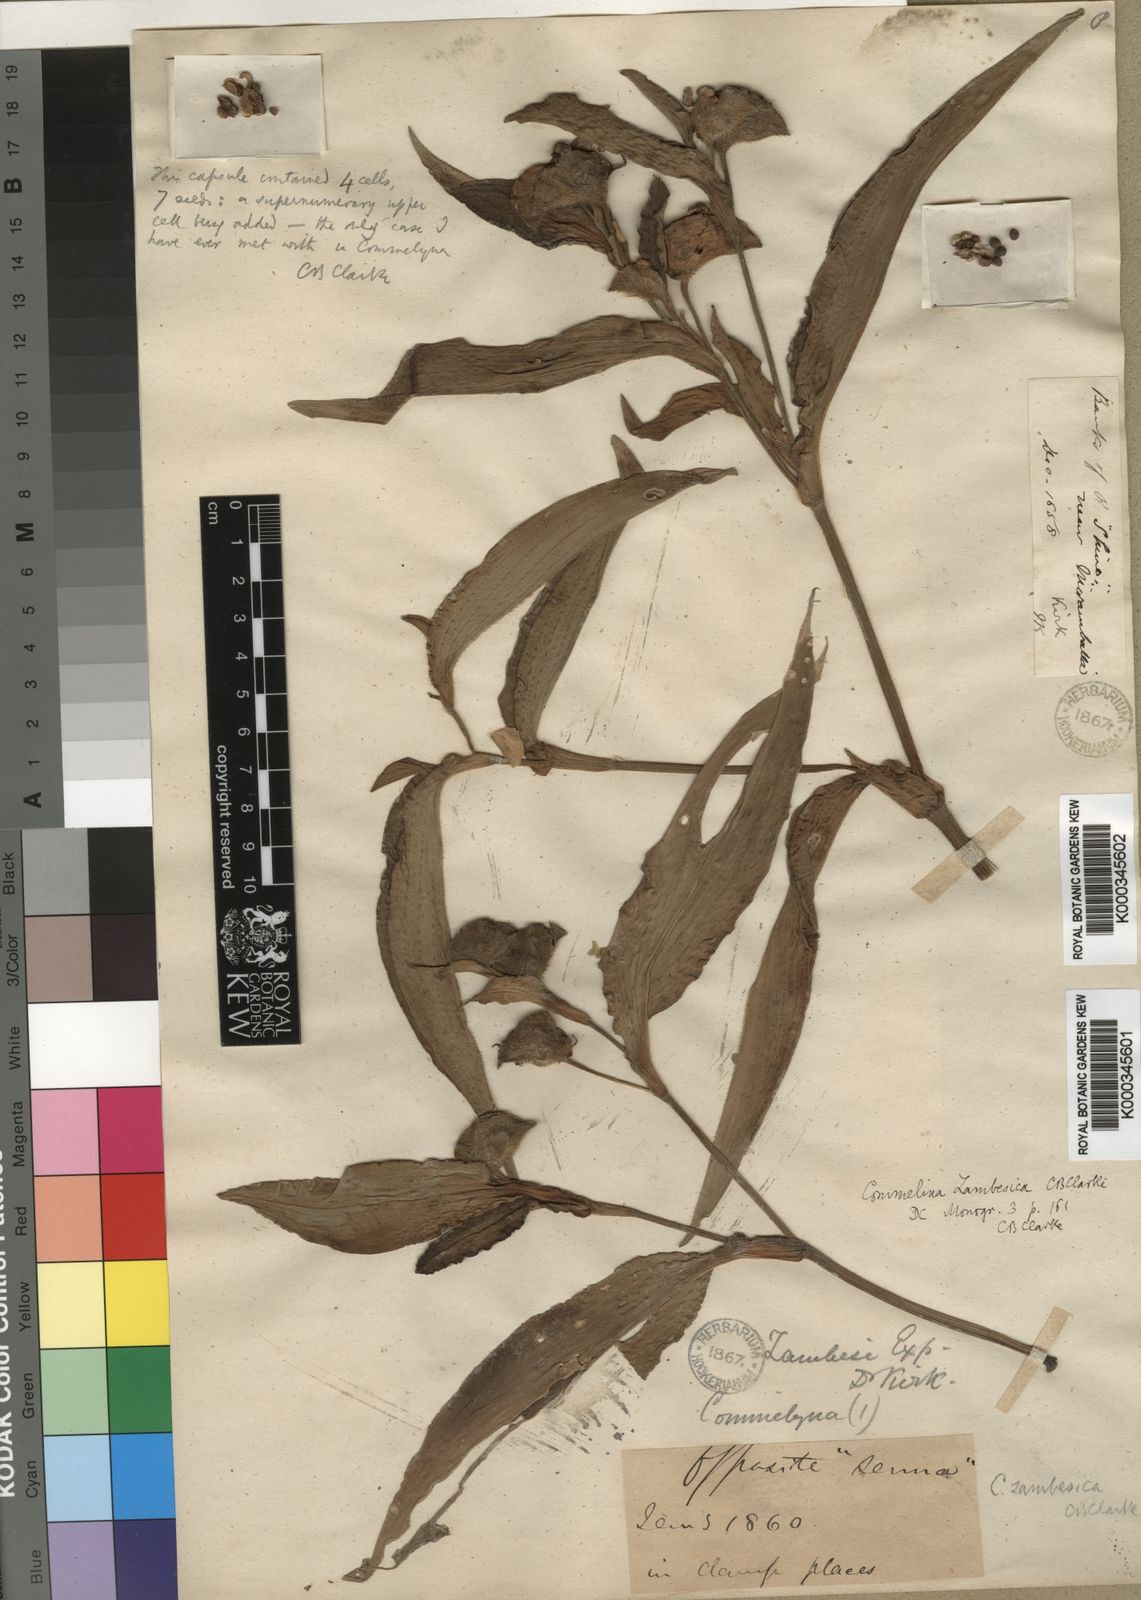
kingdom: Plantae
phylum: Tracheophyta
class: Liliopsida
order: Commelinales
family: Commelinaceae
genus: Commelina
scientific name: Commelina zambesica
